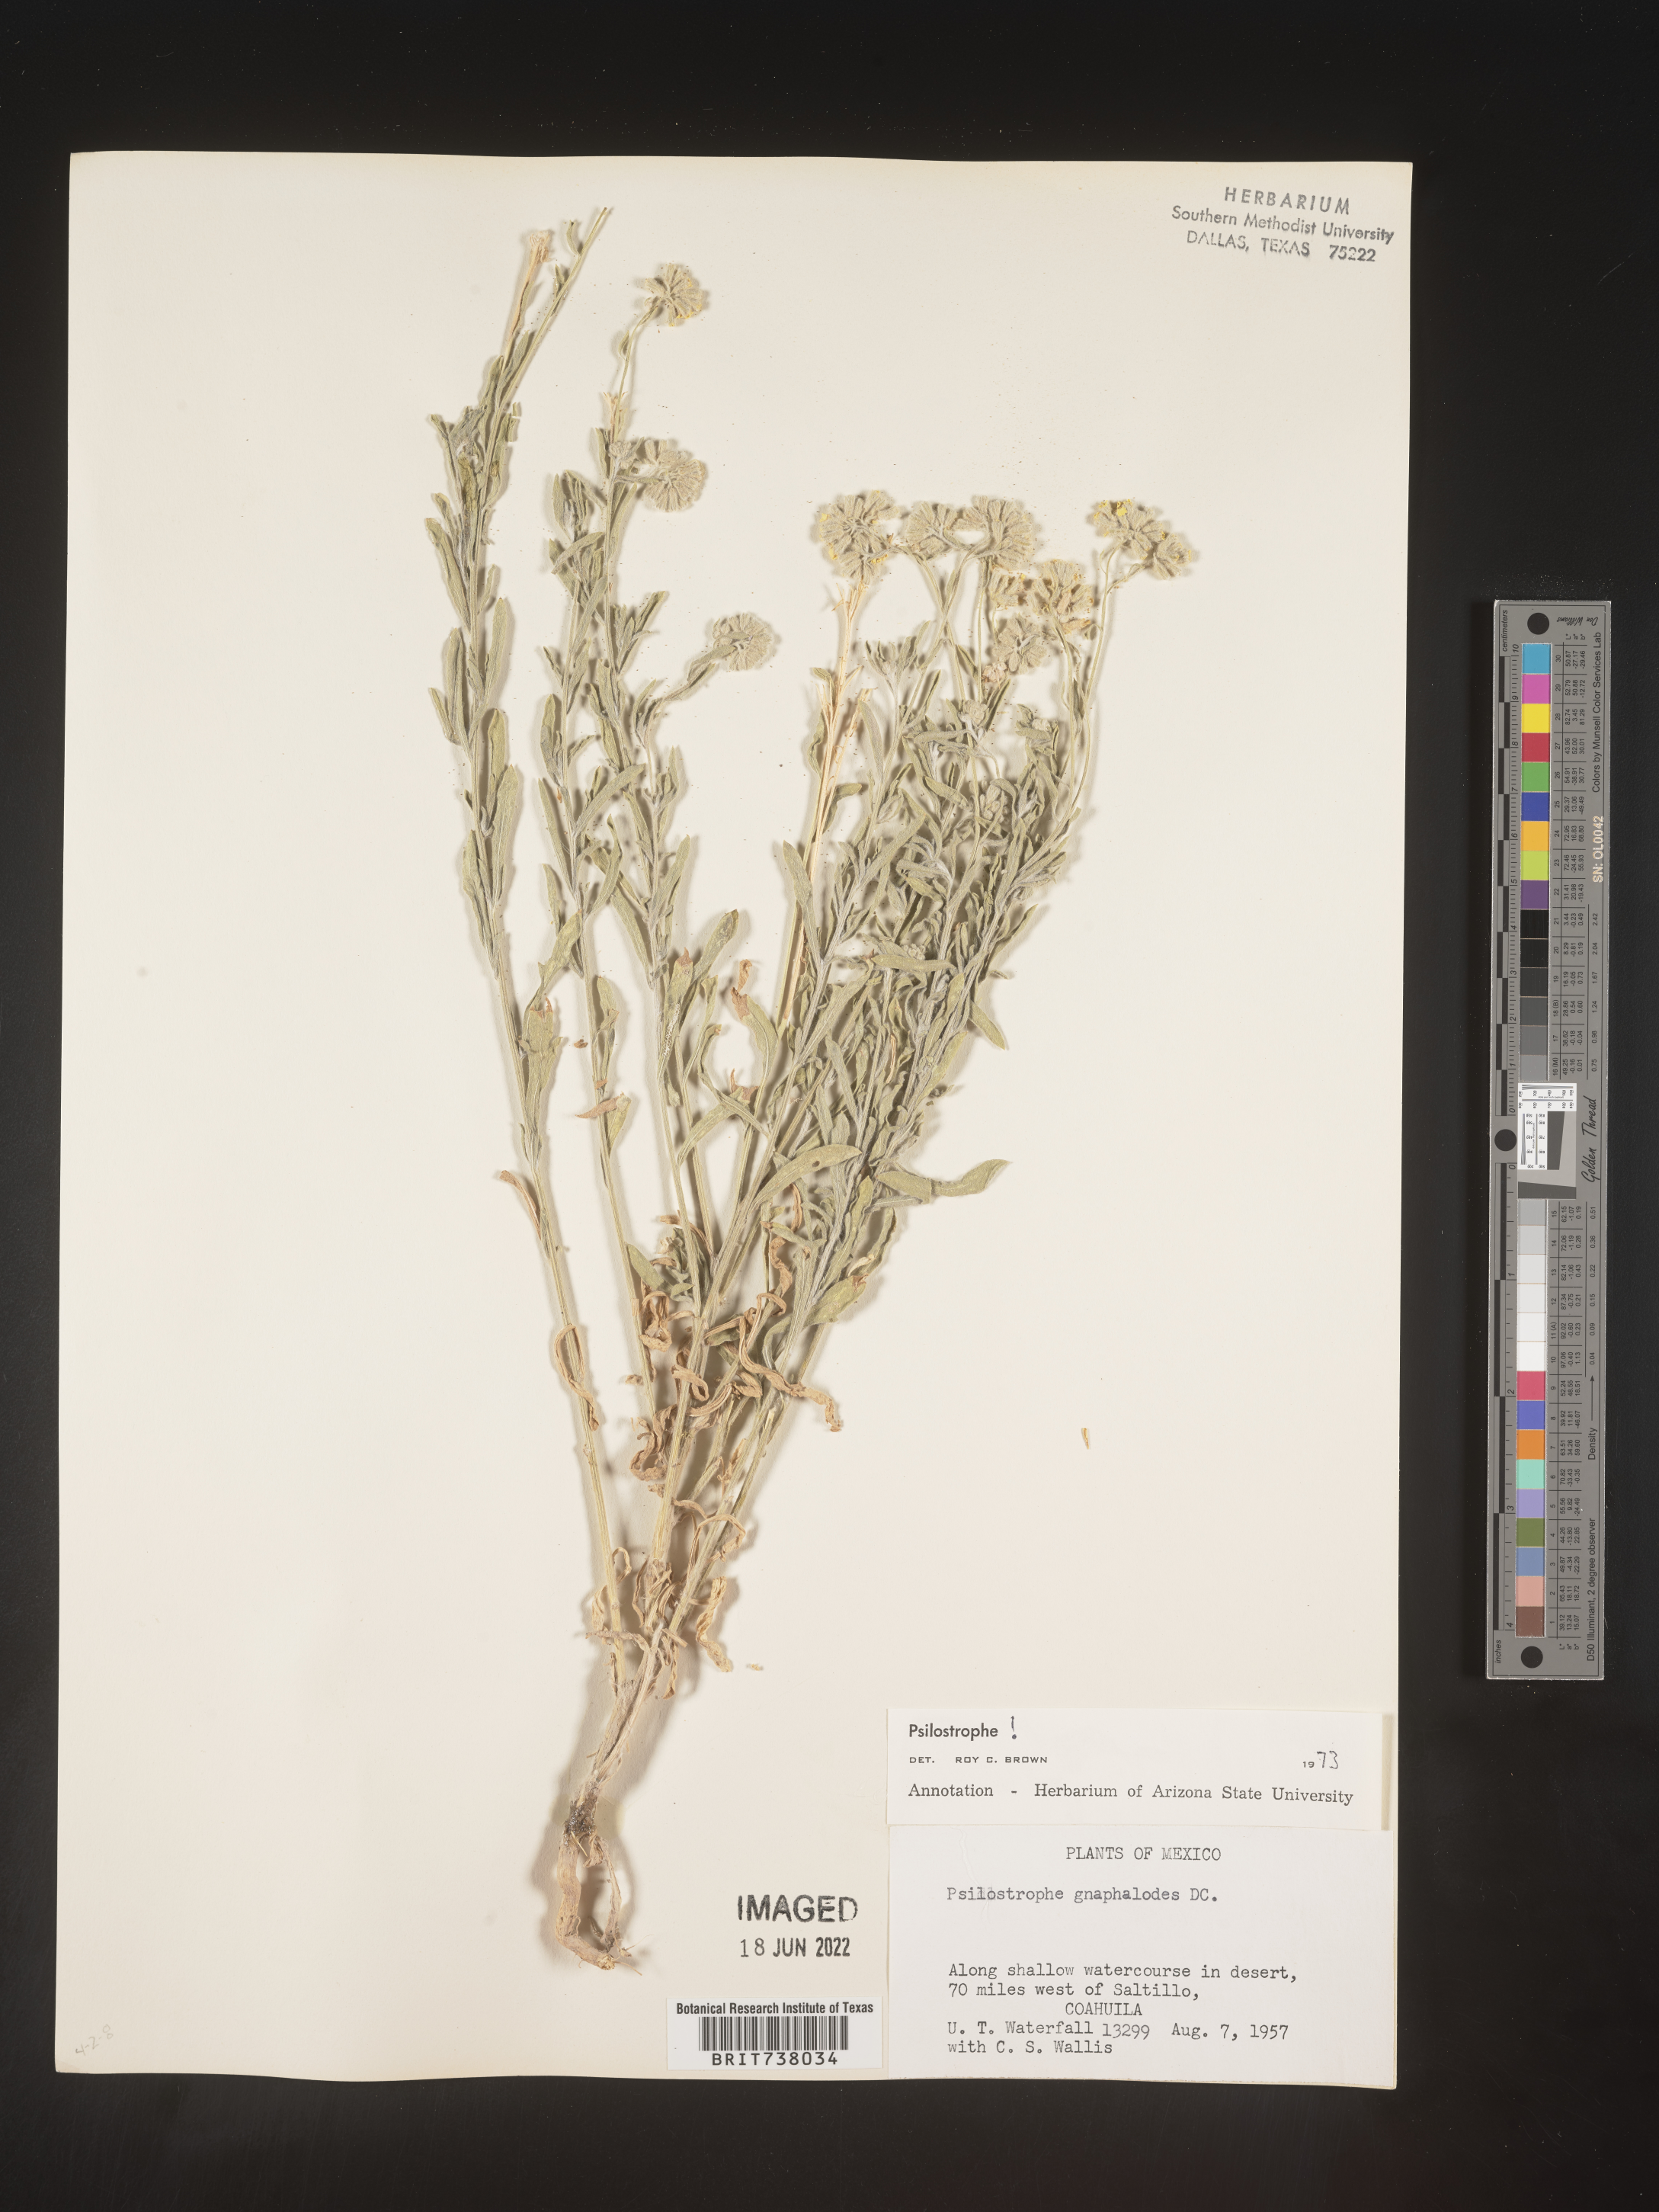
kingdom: Plantae
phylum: Tracheophyta
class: Magnoliopsida
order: Asterales
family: Asteraceae
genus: Psilostrophe
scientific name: Psilostrophe
